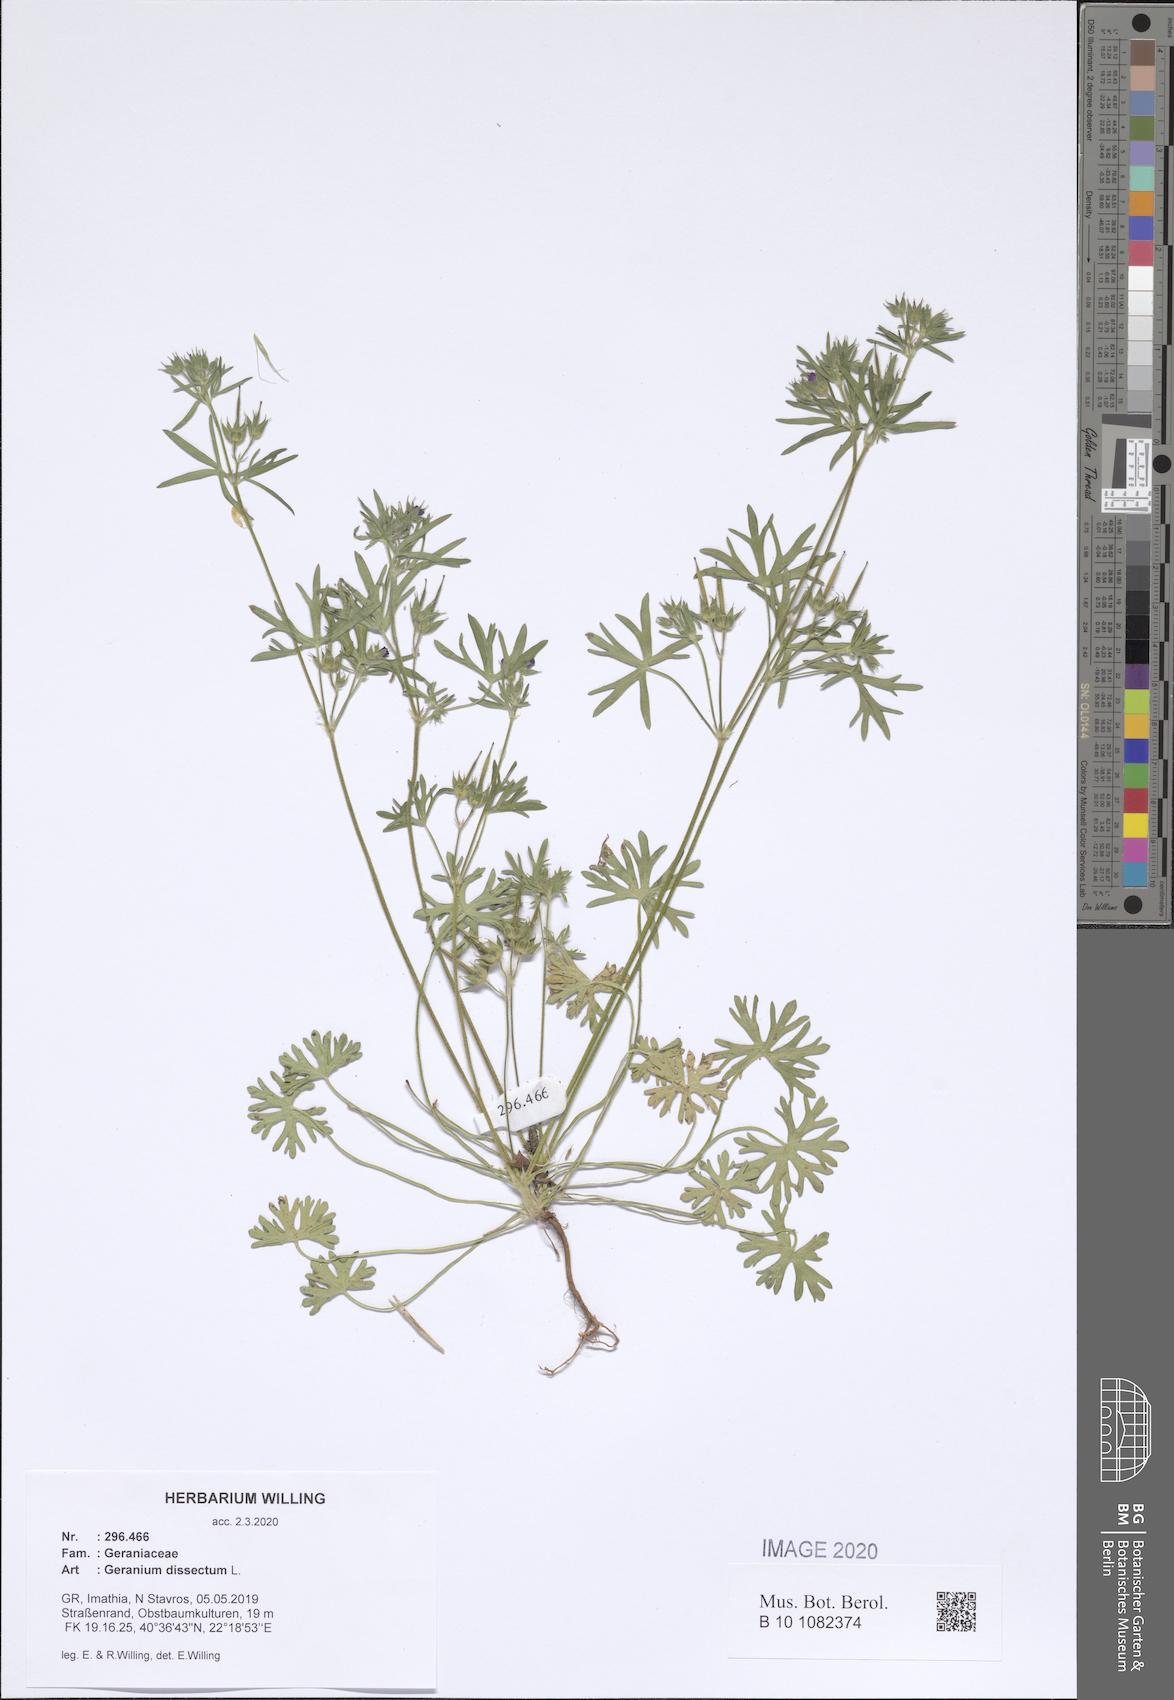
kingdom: Plantae
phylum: Tracheophyta
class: Magnoliopsida
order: Geraniales
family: Geraniaceae
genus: Geranium
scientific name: Geranium dissectum
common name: Cut-leaved crane's-bill
